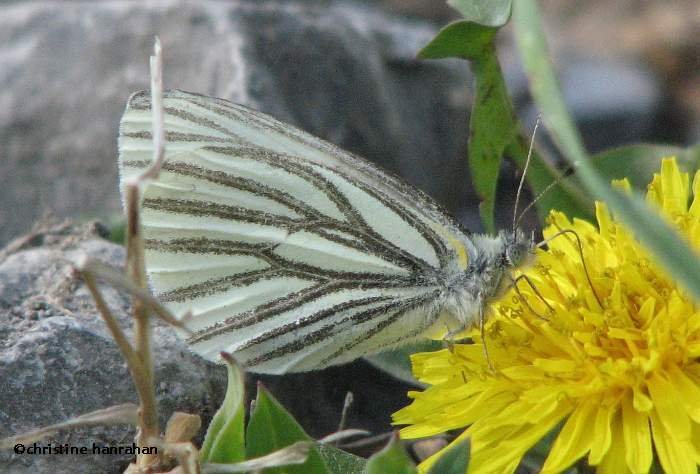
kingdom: Animalia
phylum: Arthropoda
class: Insecta
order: Lepidoptera
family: Pieridae
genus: Pieris
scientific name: Pieris oleracea
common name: Mustard White
